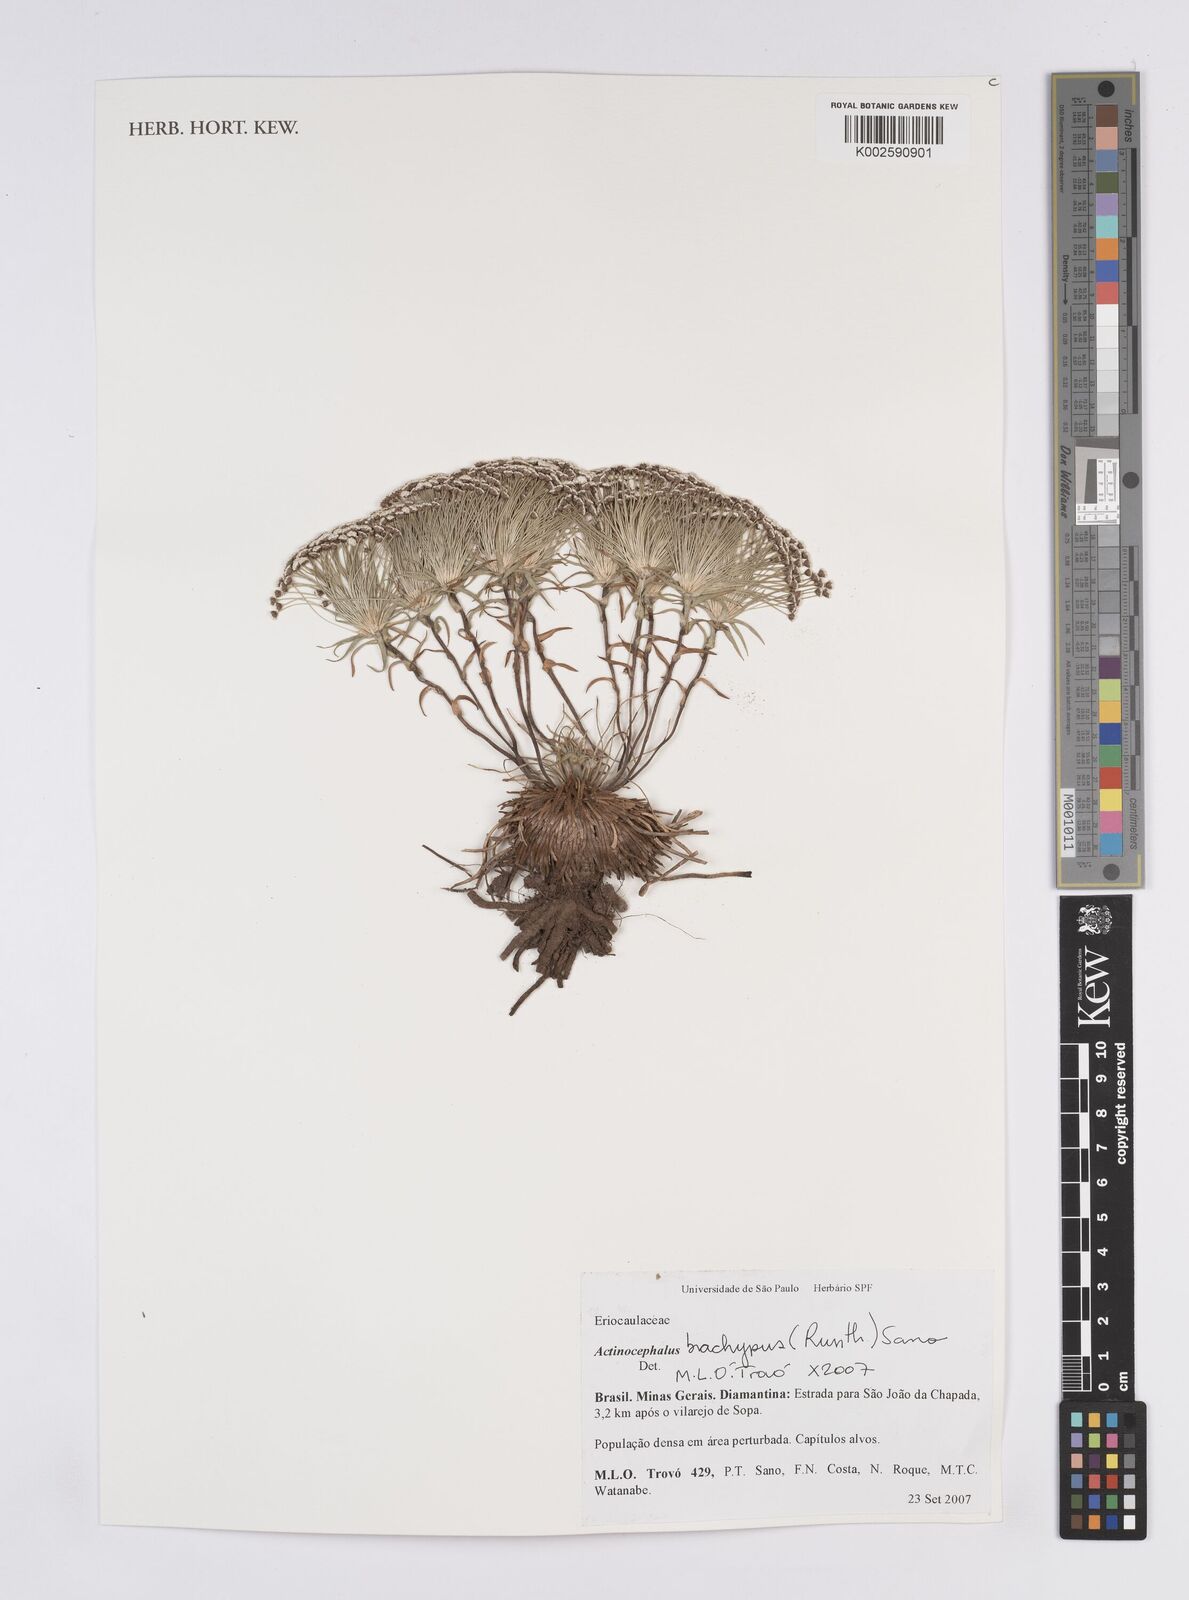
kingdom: Plantae
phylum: Tracheophyta
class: Liliopsida
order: Poales
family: Eriocaulaceae
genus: Paepalanthus
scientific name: Paepalanthus brachypus
